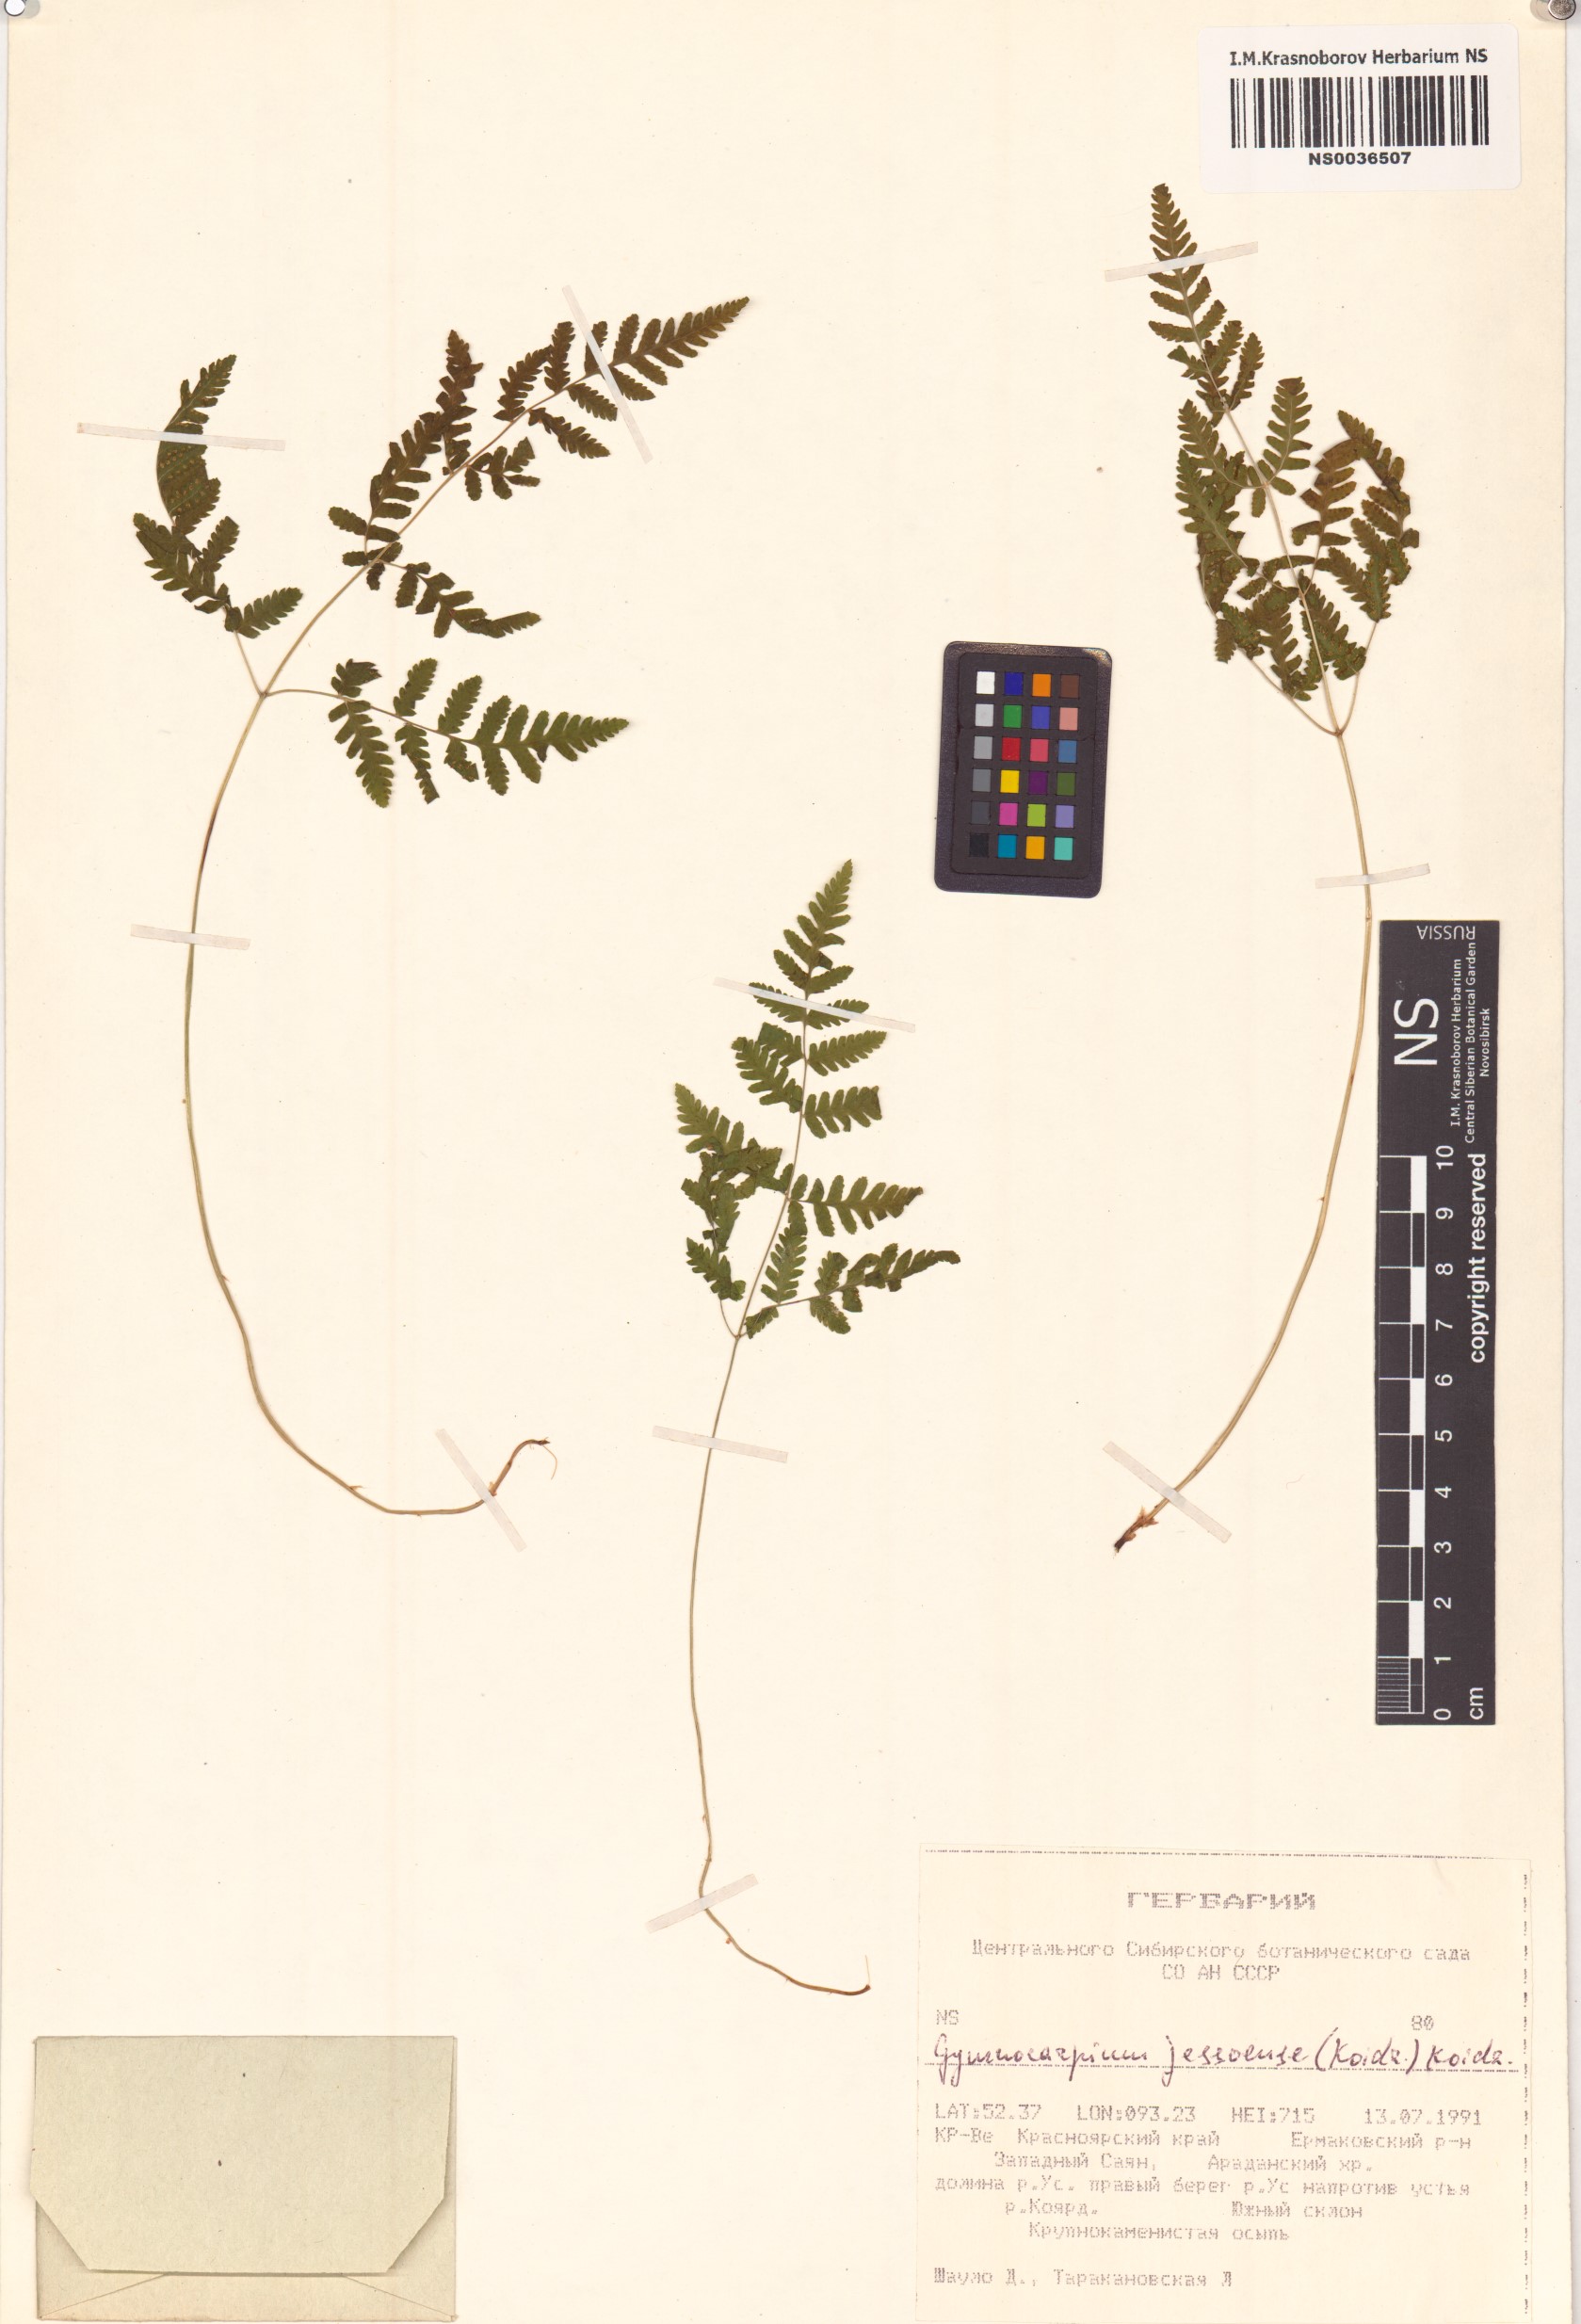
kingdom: Plantae
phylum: Tracheophyta
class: Polypodiopsida
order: Polypodiales
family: Cystopteridaceae
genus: Gymnocarpium
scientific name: Gymnocarpium jessoense
